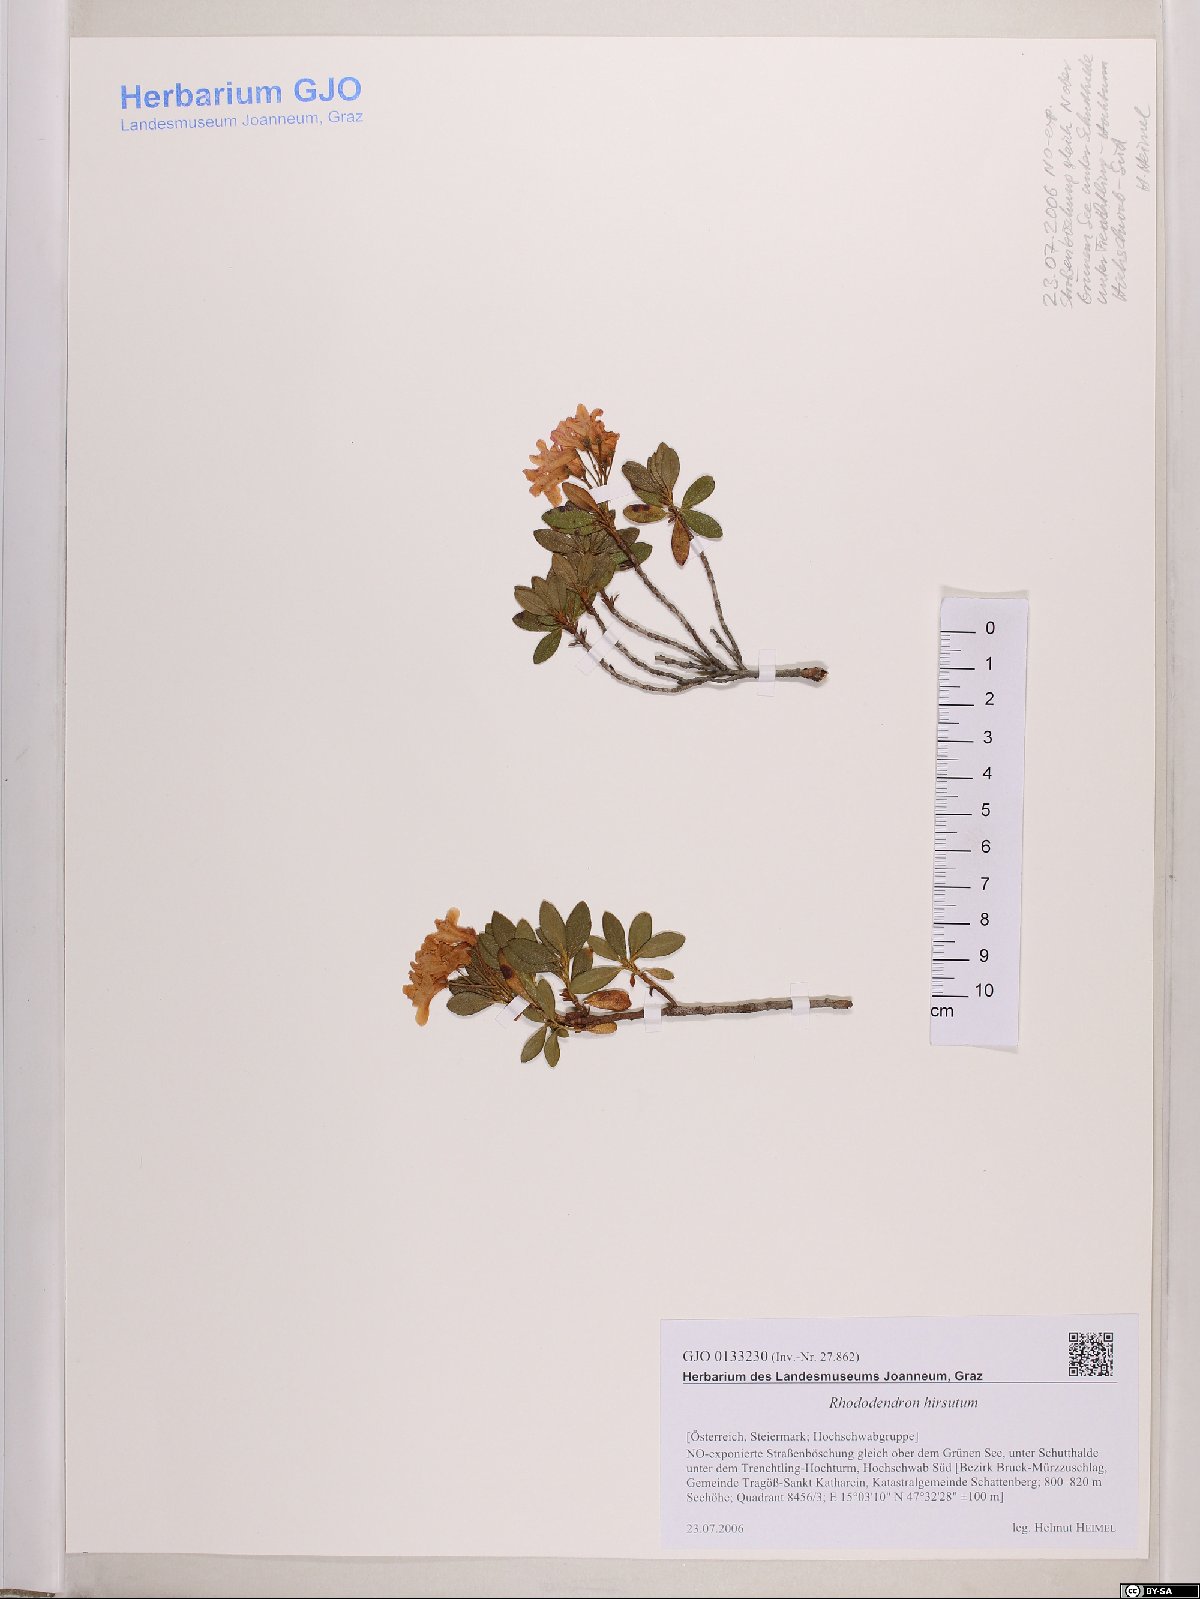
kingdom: Plantae
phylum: Tracheophyta
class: Magnoliopsida
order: Ericales
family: Ericaceae
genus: Rhododendron
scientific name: Rhododendron hirsutum
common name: Hairy alpenrose
